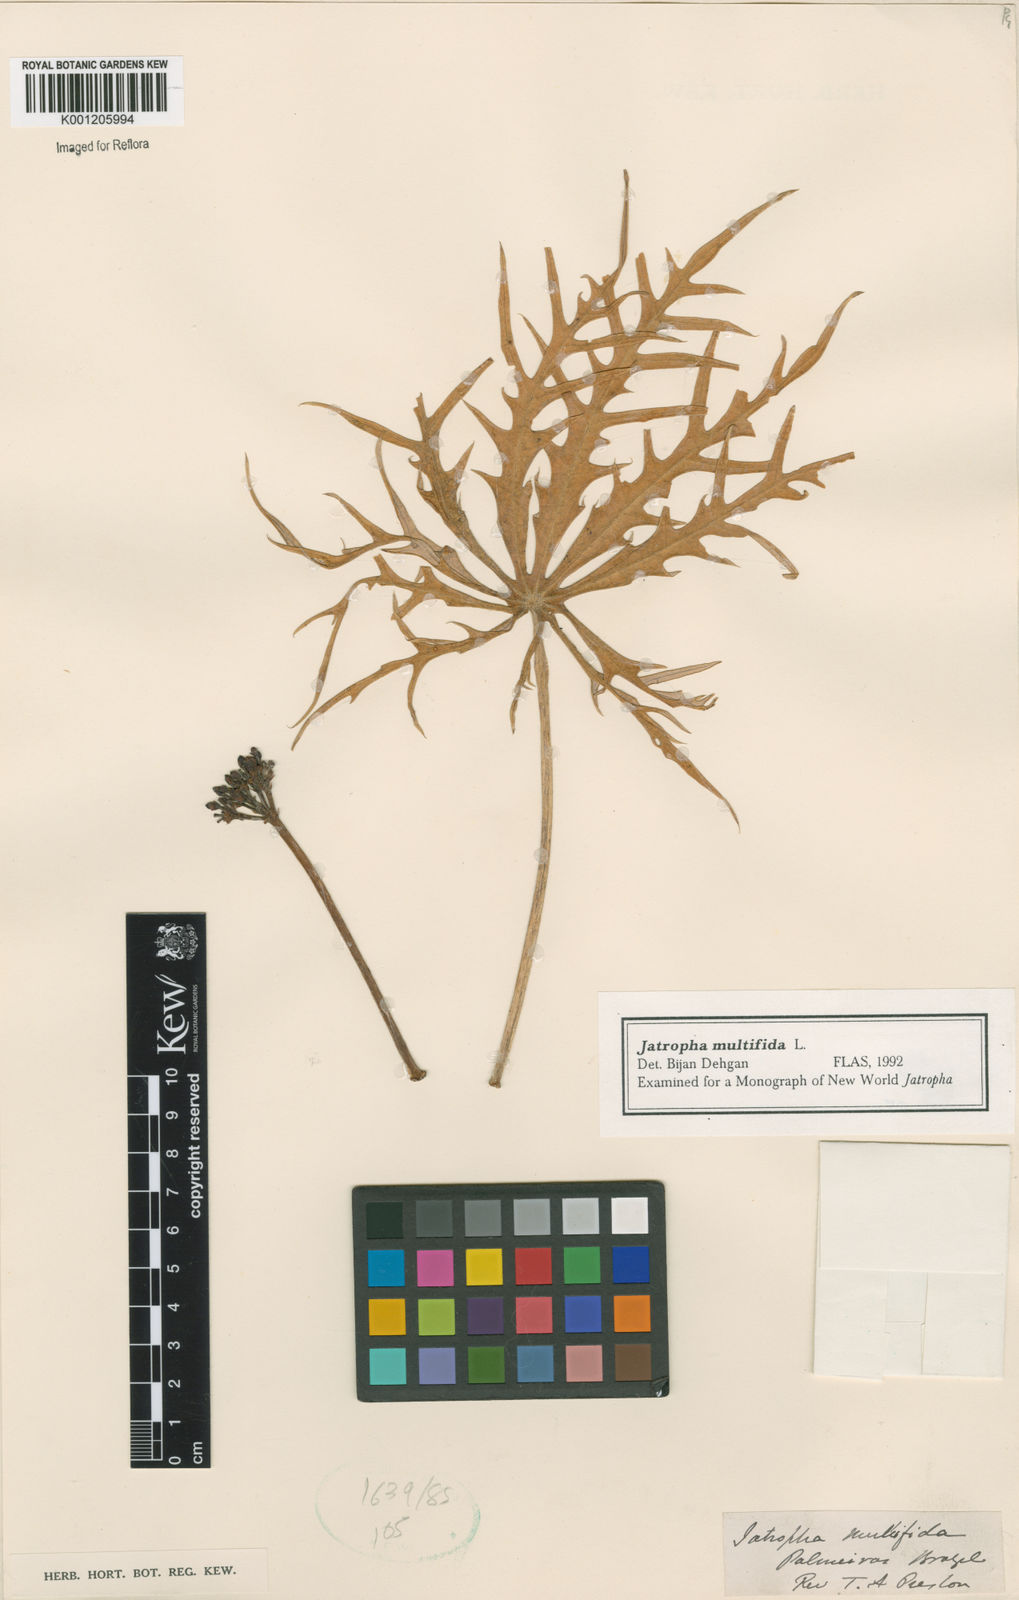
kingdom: Plantae
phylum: Tracheophyta
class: Magnoliopsida
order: Malpighiales
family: Euphorbiaceae
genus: Jatropha
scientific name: Jatropha multifida
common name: Coralbush
